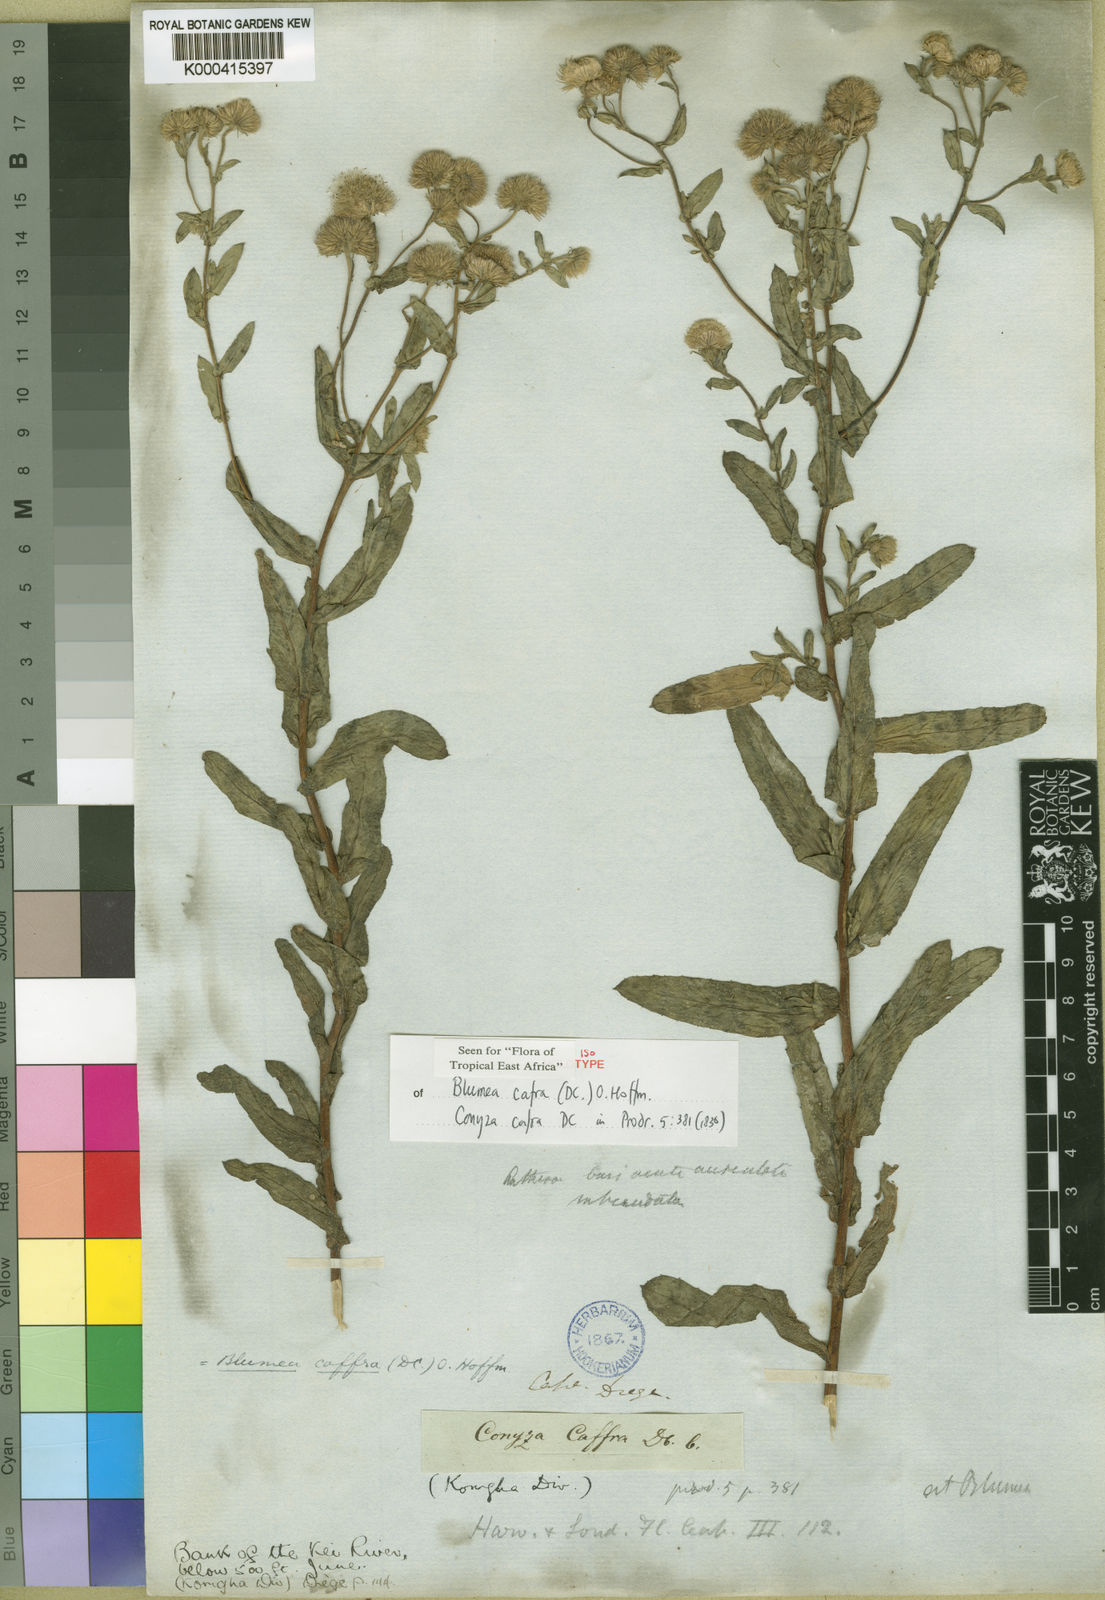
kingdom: Plantae
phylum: Tracheophyta
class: Magnoliopsida
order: Asterales
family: Asteraceae
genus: Doellia
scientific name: Doellia cafra
